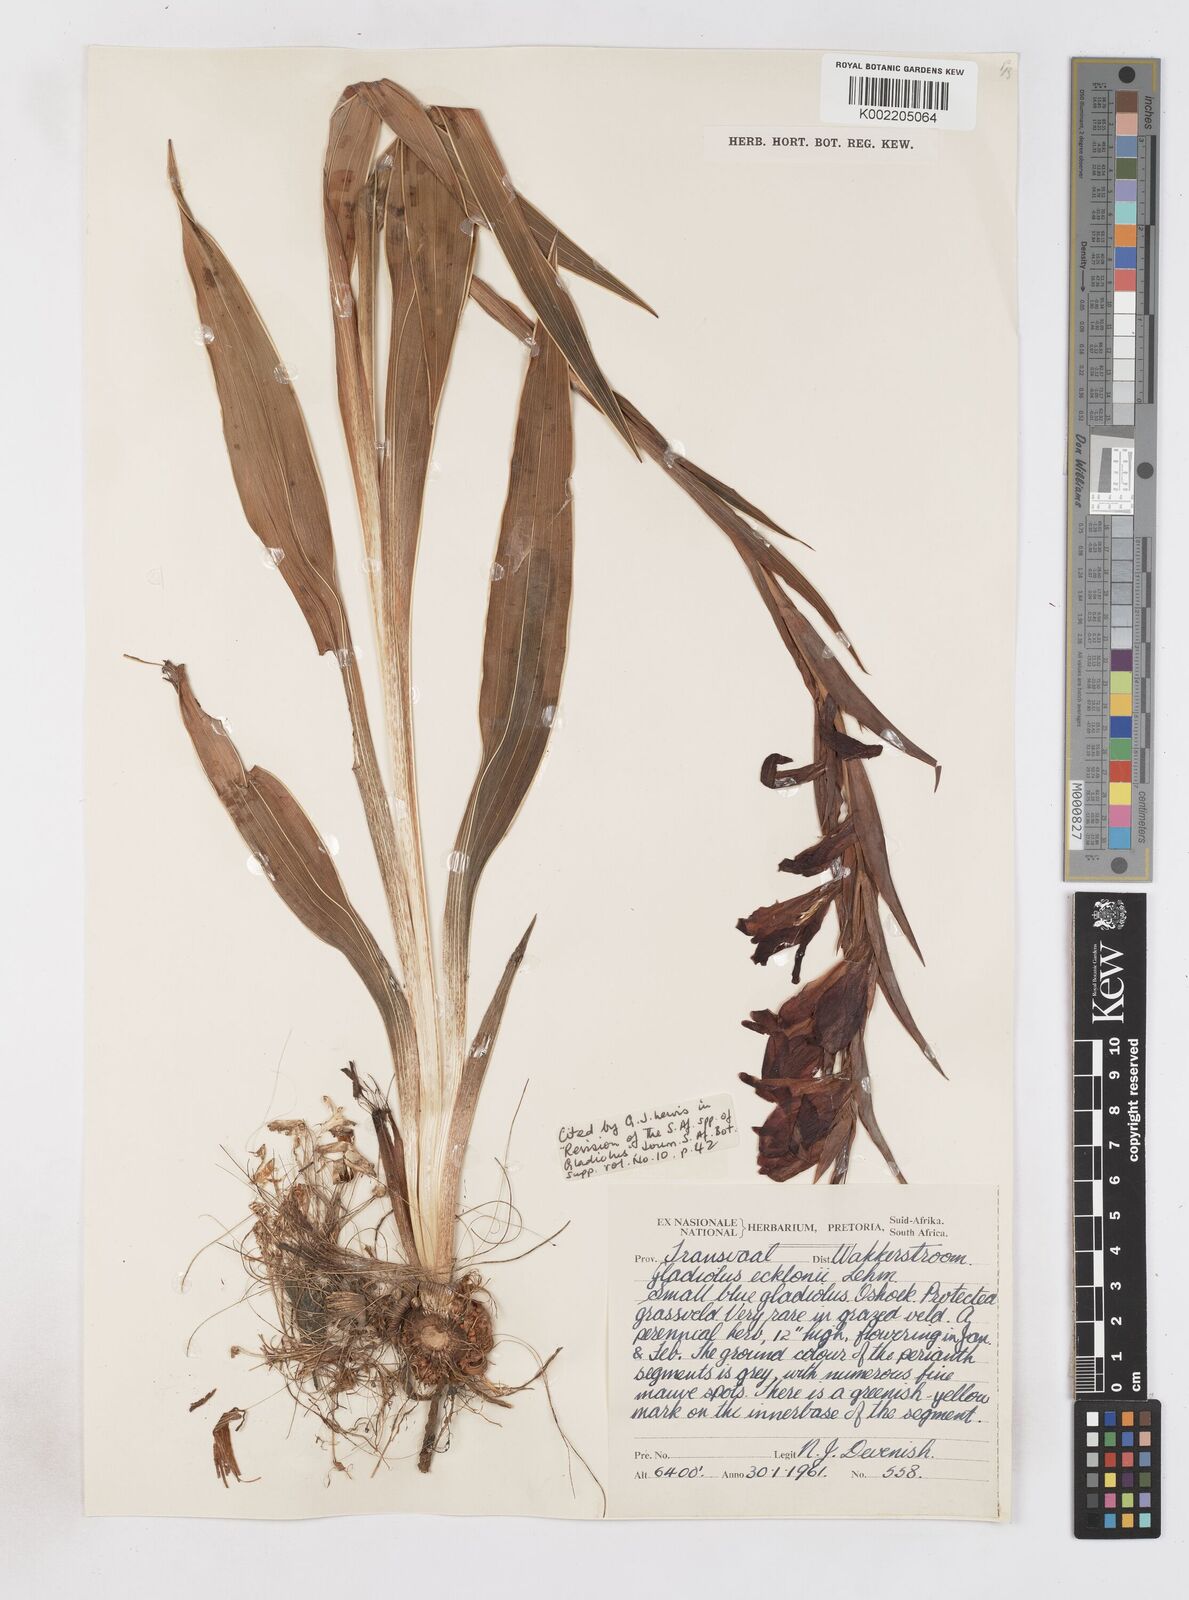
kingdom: Plantae
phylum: Tracheophyta
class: Liliopsida
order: Asparagales
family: Iridaceae
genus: Gladiolus
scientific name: Gladiolus ecklonii
